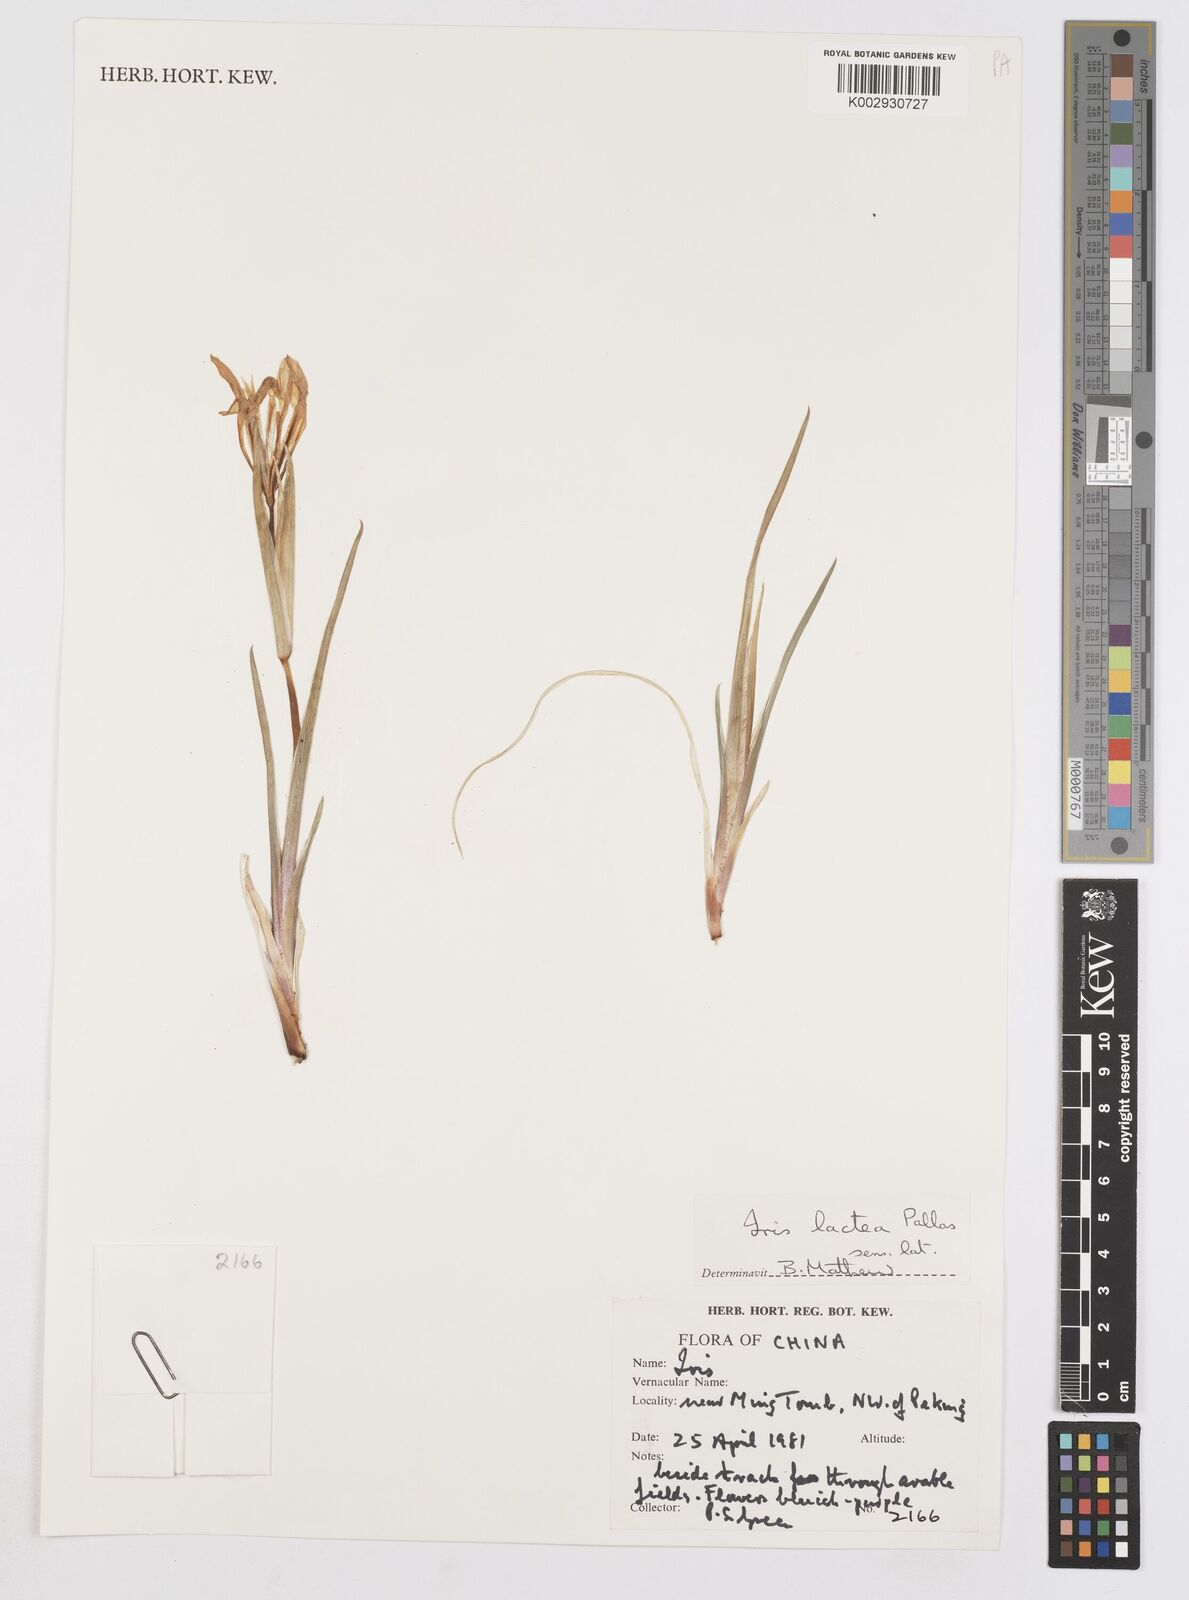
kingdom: Plantae
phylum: Tracheophyta
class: Liliopsida
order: Asparagales
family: Iridaceae
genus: Iris
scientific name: Iris lactea
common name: White-flower chinese iris
